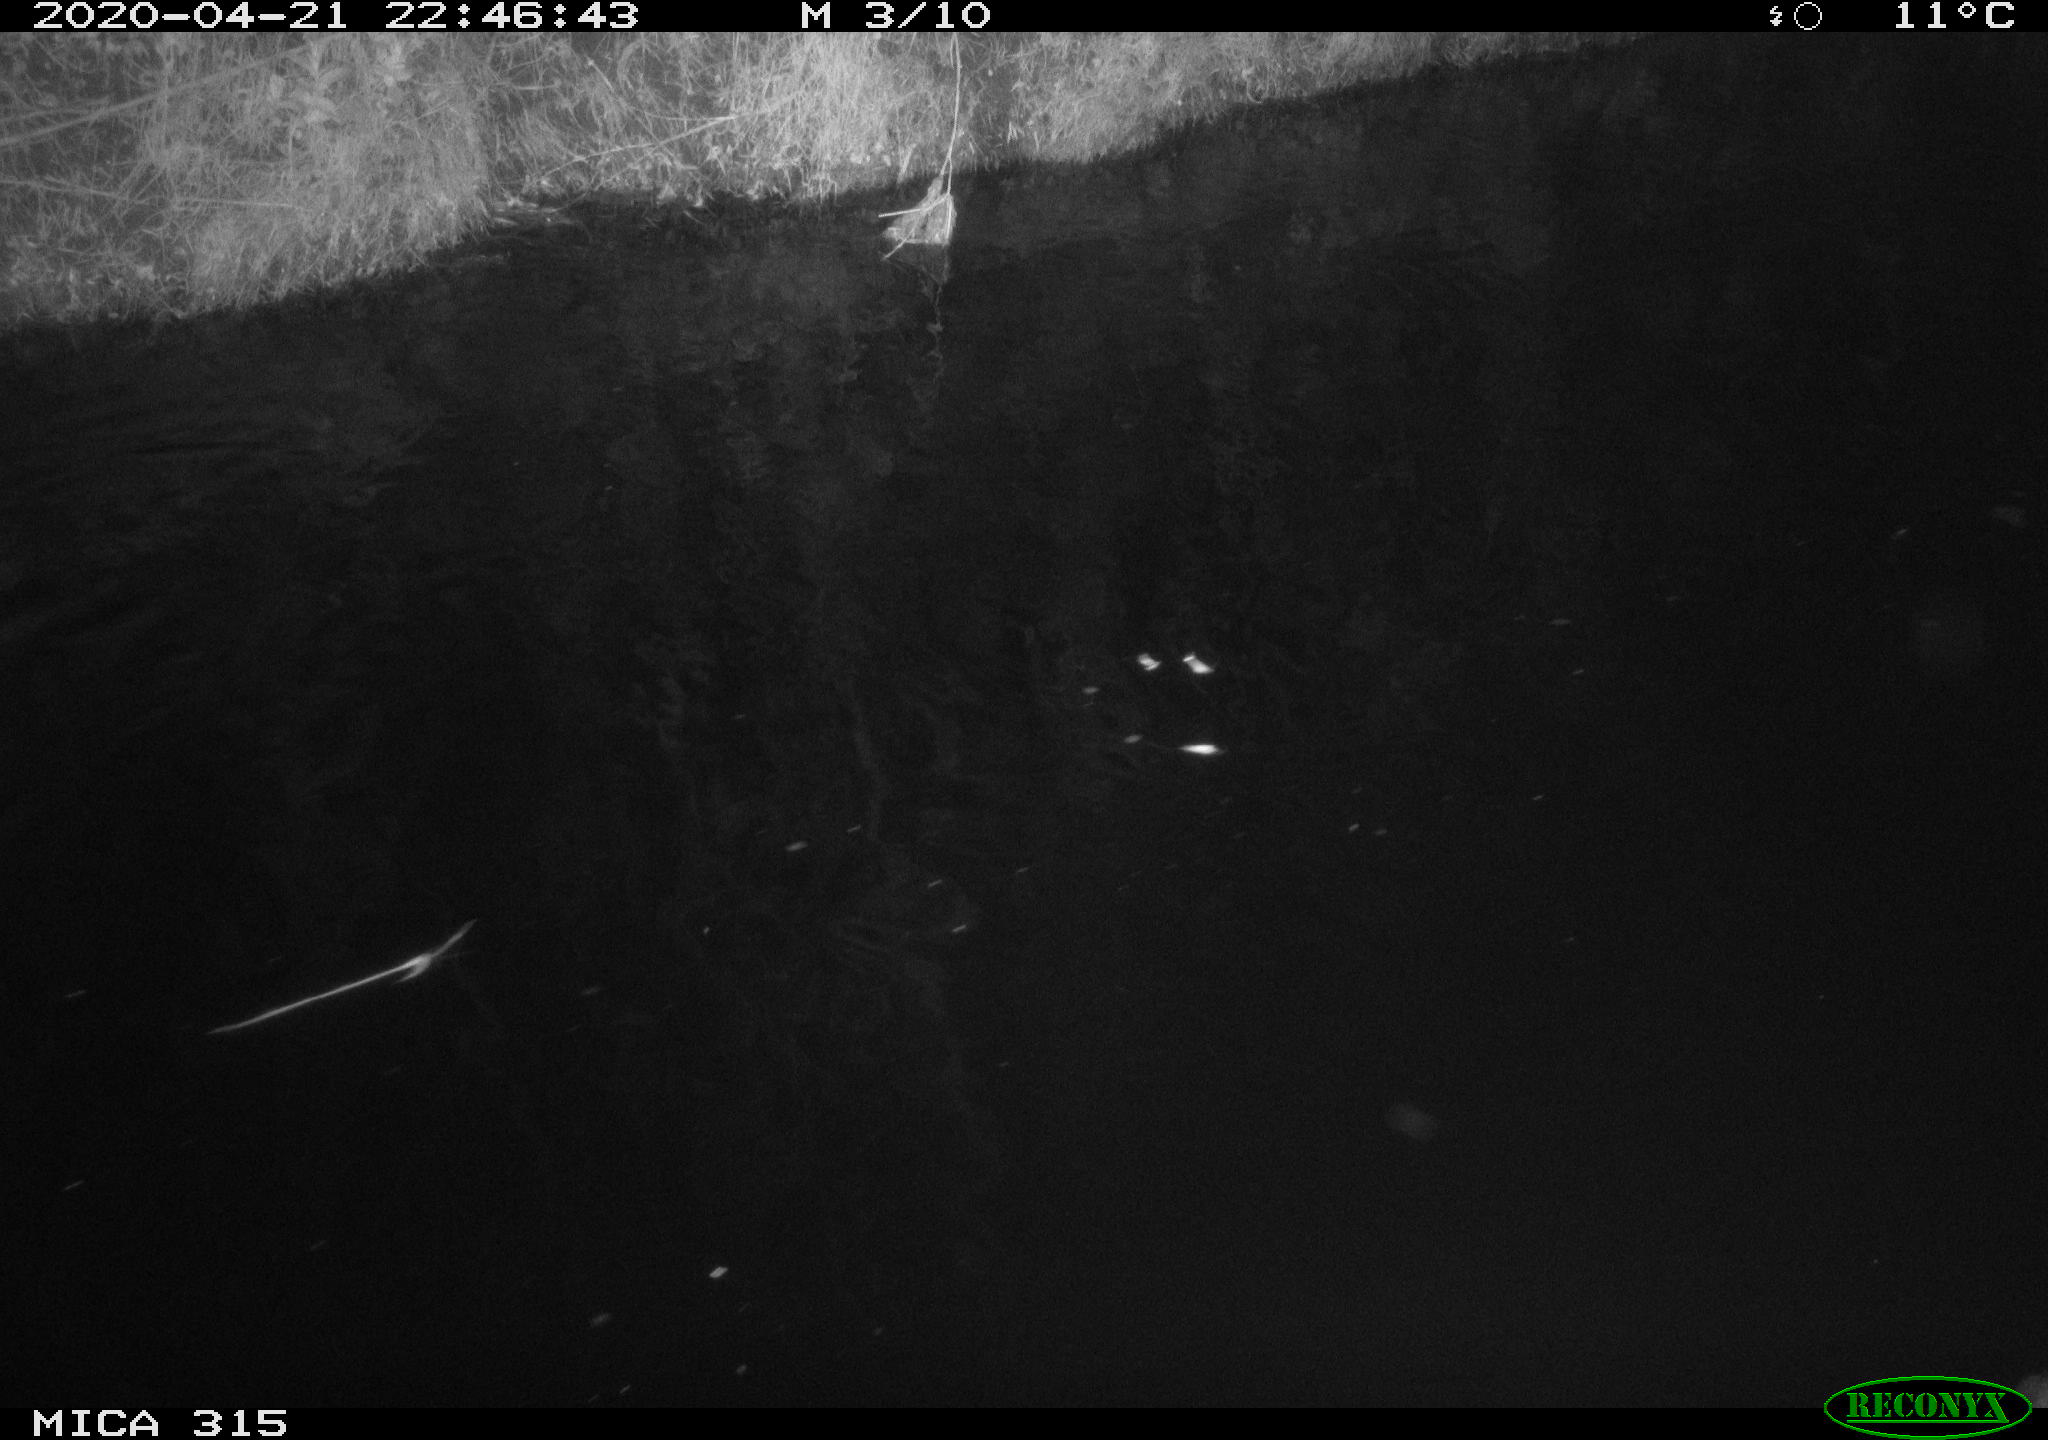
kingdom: Animalia
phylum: Chordata
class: Aves
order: Anseriformes
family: Anatidae
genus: Anas
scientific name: Anas platyrhynchos
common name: Mallard
